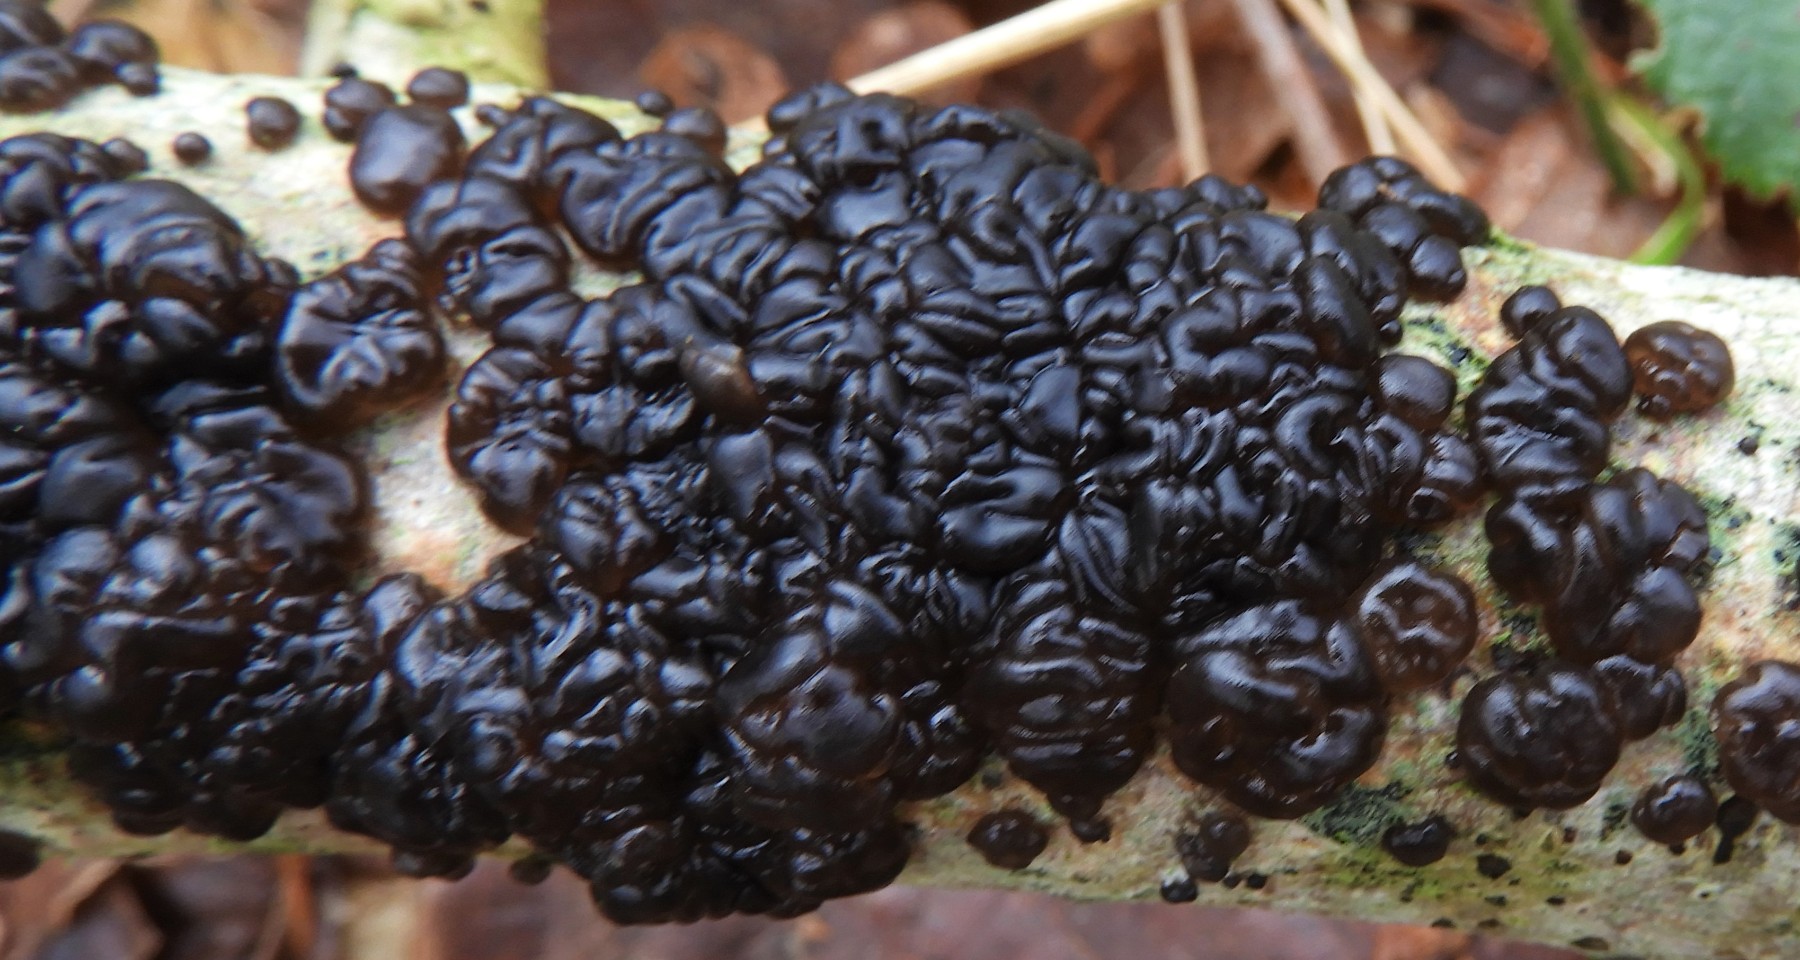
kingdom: Fungi
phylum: Basidiomycota
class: Agaricomycetes
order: Auriculariales
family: Auriculariaceae
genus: Exidia
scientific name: Exidia nigricans
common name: almindelig bævretop
